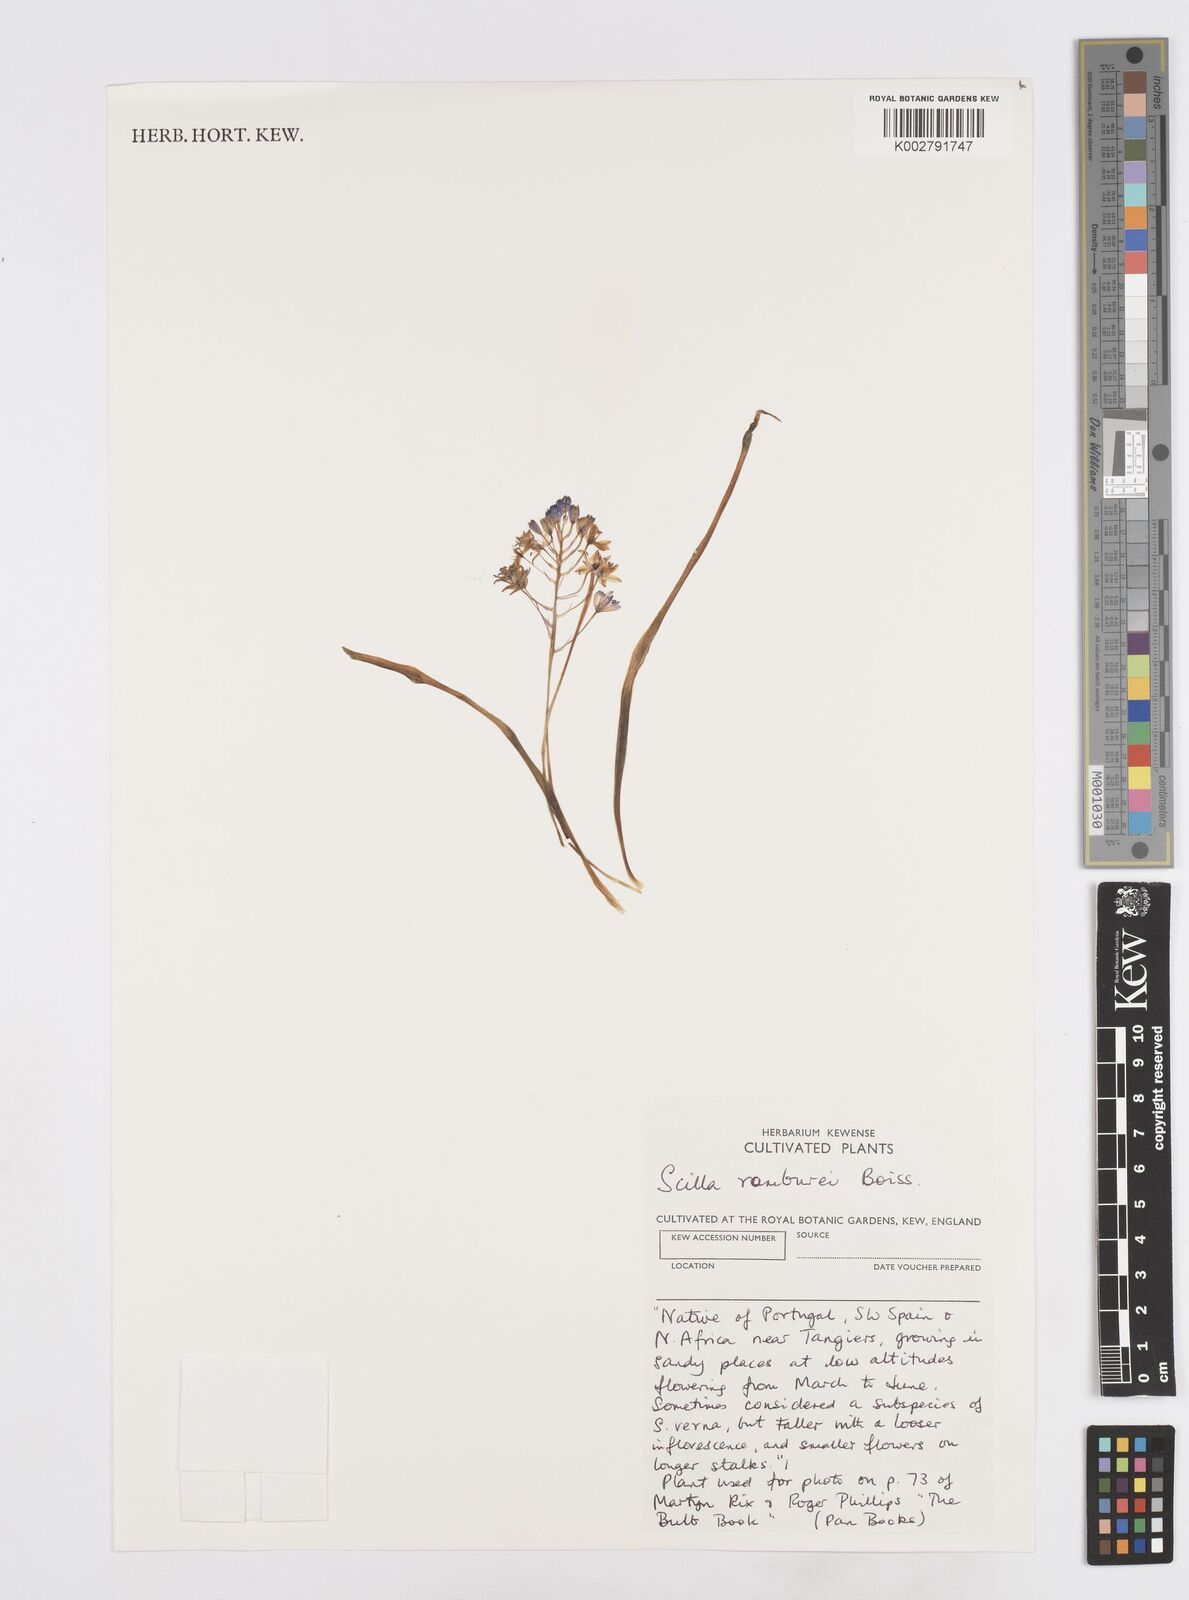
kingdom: Plantae
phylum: Tracheophyta
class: Liliopsida
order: Asparagales
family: Asparagaceae
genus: Scilla
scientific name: Scilla verna
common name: Spring squill
